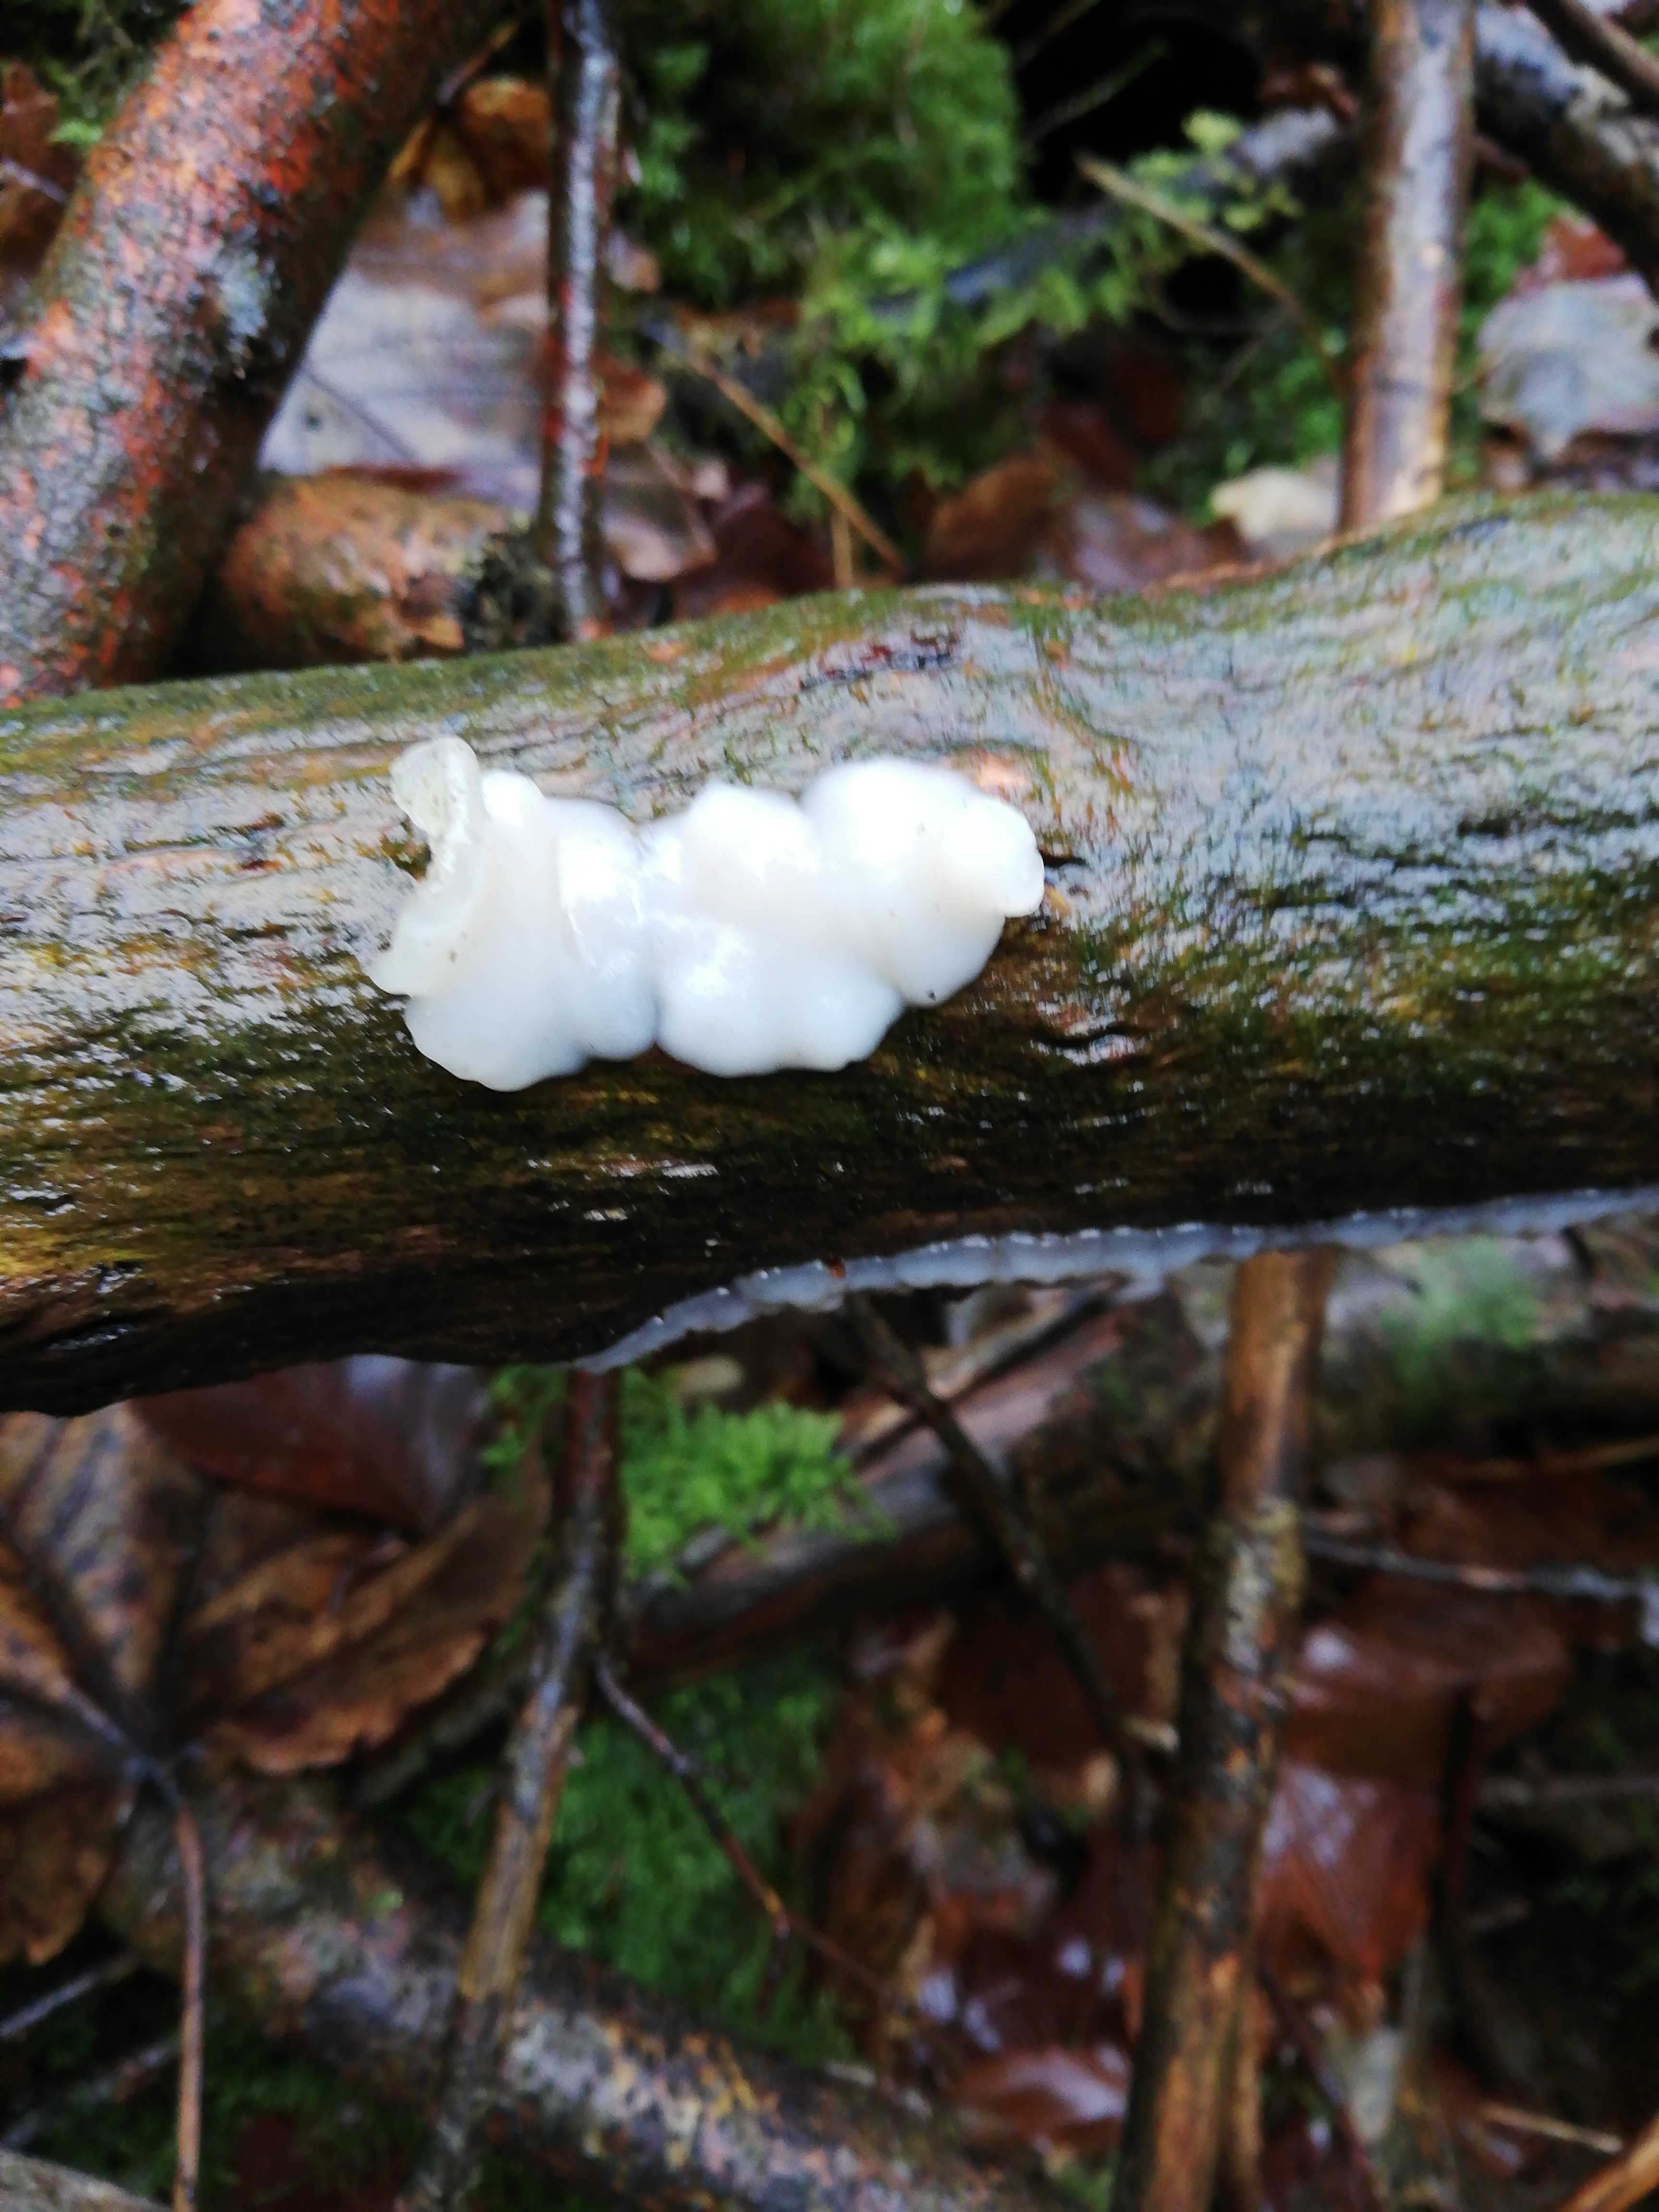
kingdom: Fungi
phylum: Basidiomycota
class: Agaricomycetes
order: Auriculariales
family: Auriculariaceae
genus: Exidia
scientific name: Exidia thuretiana
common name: hvidlig bævretop
